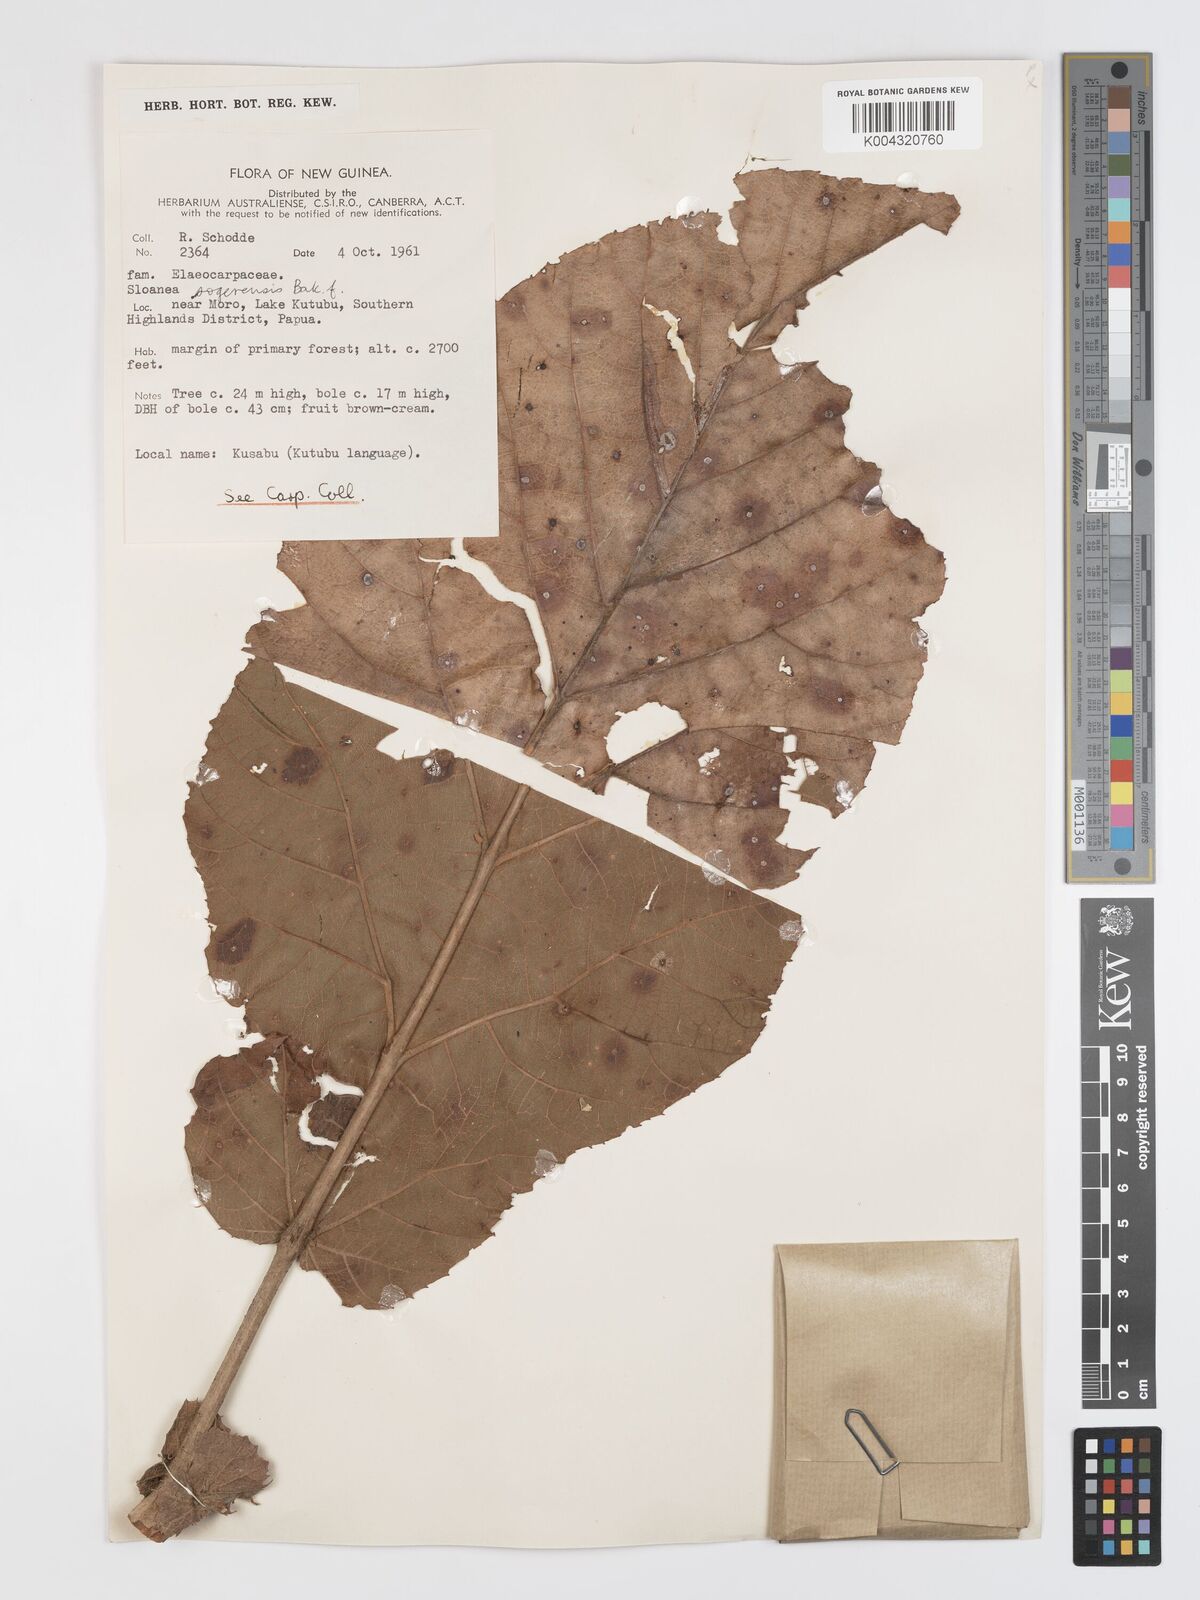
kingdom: Plantae
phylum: Tracheophyta
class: Magnoliopsida
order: Oxalidales
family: Elaeocarpaceae
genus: Sloanea
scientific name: Sloanea sogerensis
